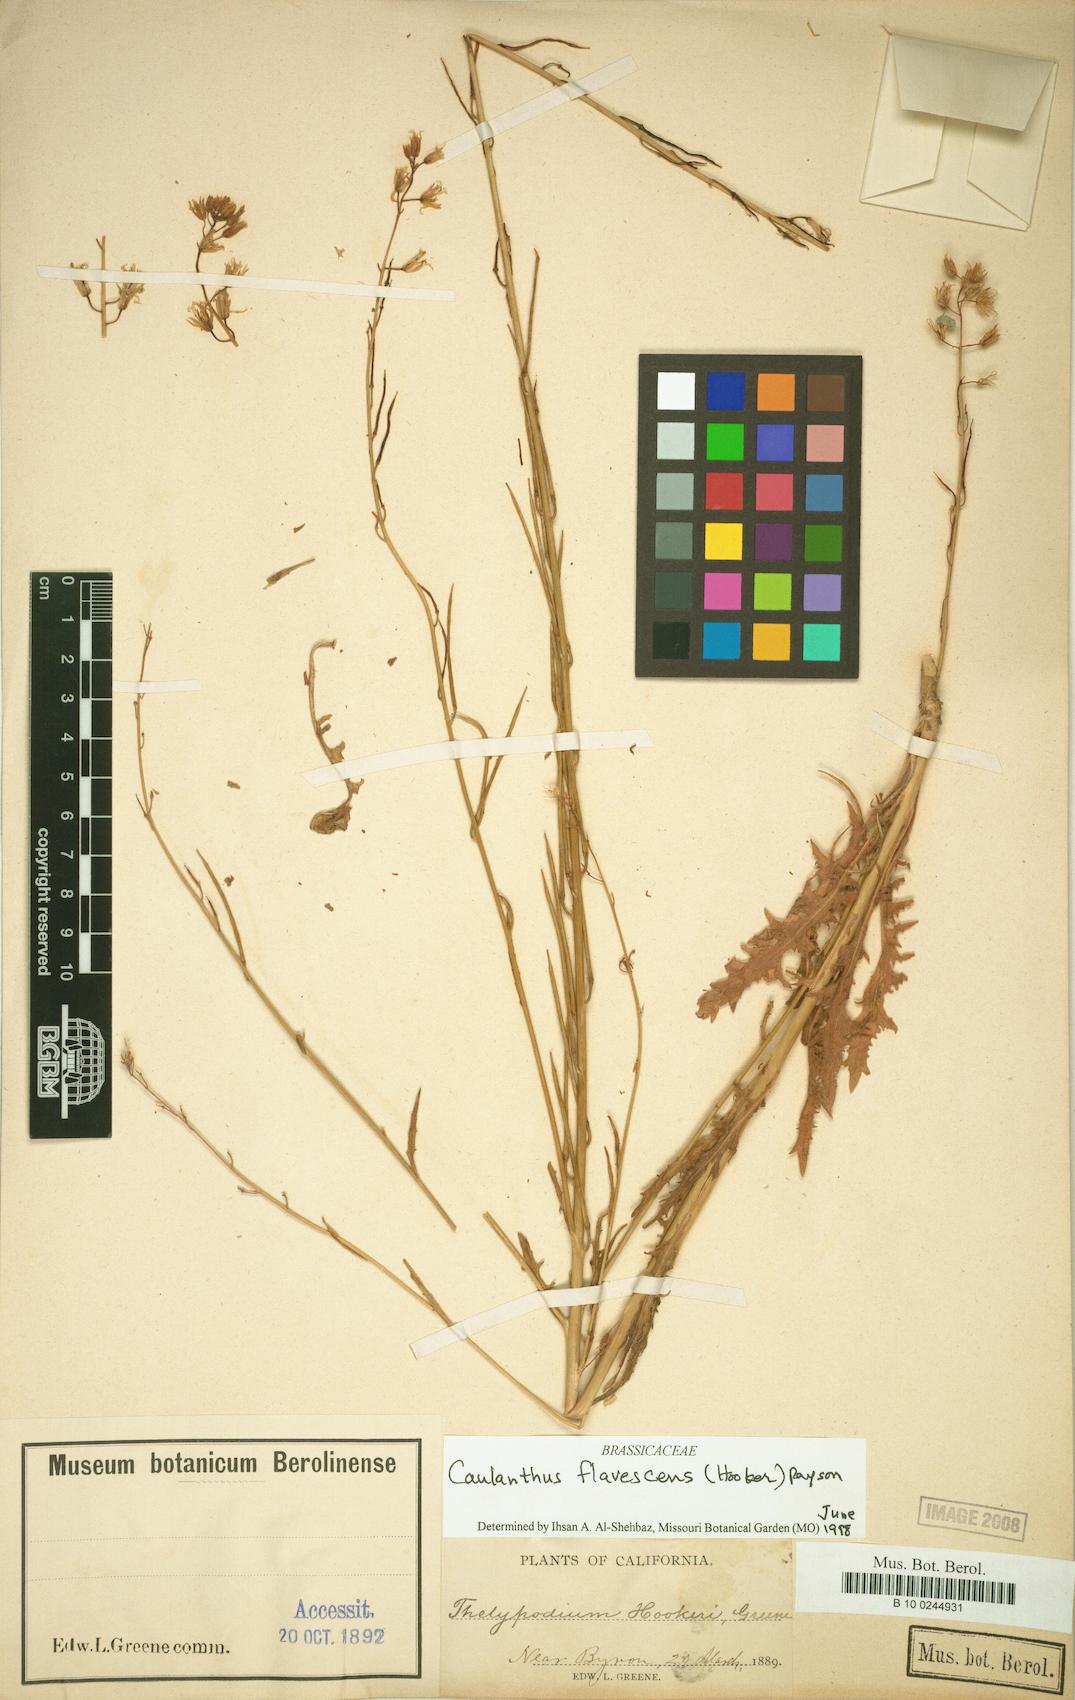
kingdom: Plantae
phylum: Tracheophyta
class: Magnoliopsida
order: Brassicales
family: Brassicaceae
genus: Streptanthus
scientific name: Streptanthus flavescens
